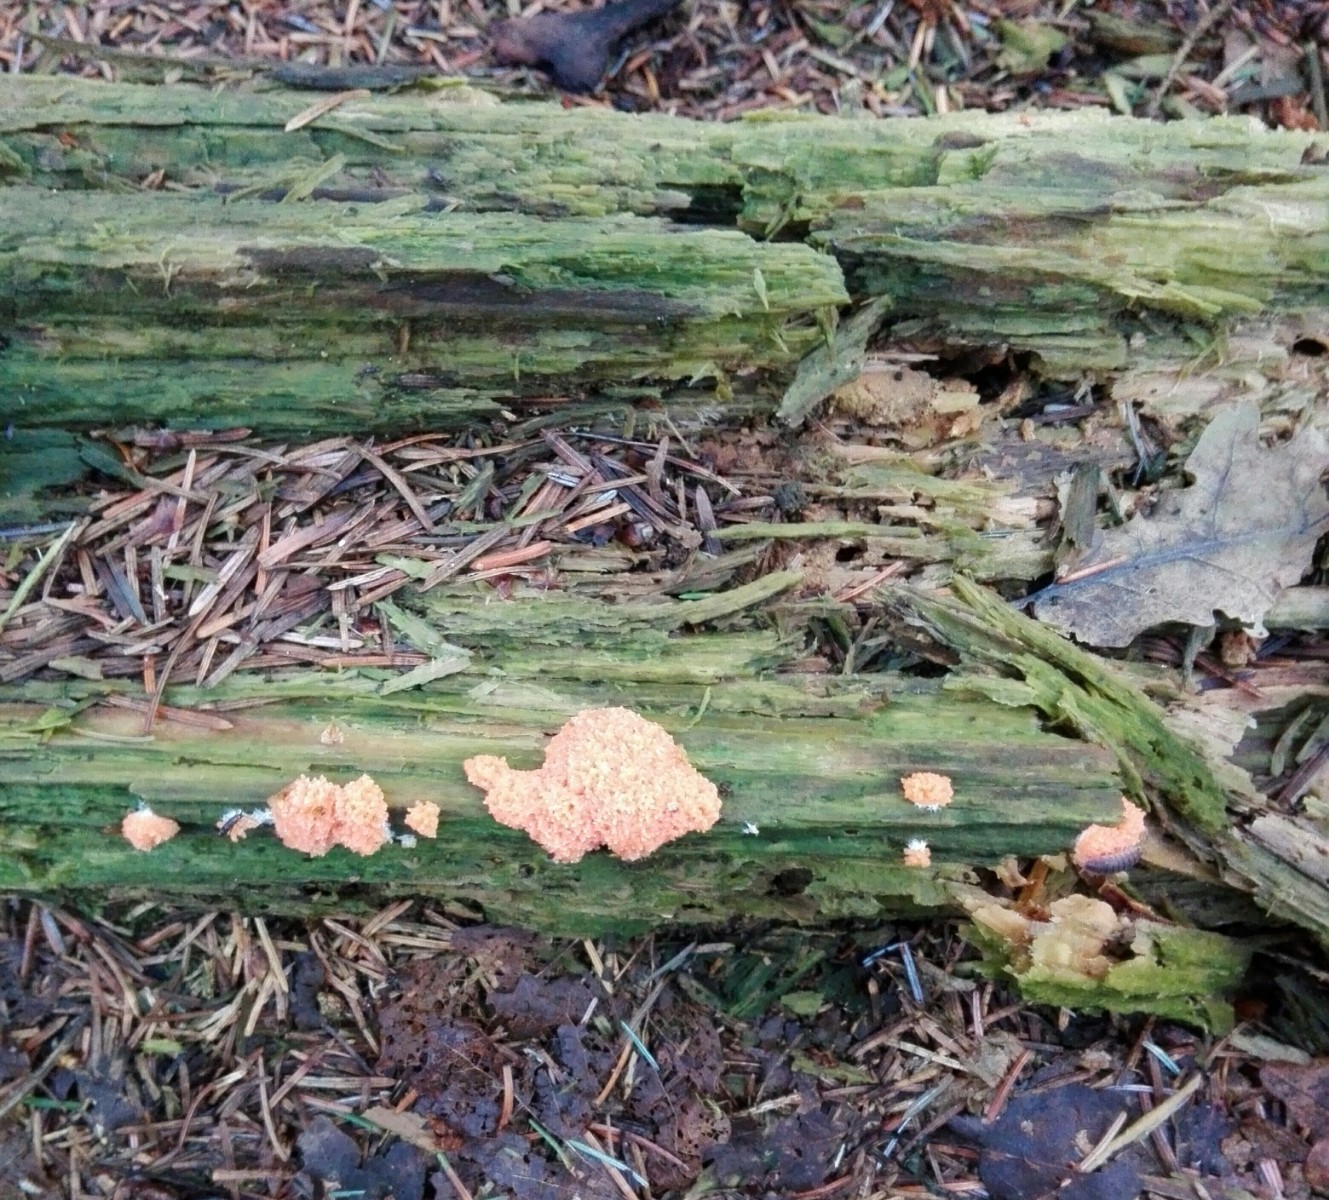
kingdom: Protozoa
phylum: Mycetozoa
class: Myxomycetes
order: Cribrariales
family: Tubiferaceae
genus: Tubifera
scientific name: Tubifera ferruginosa
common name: kanel-støvrør
